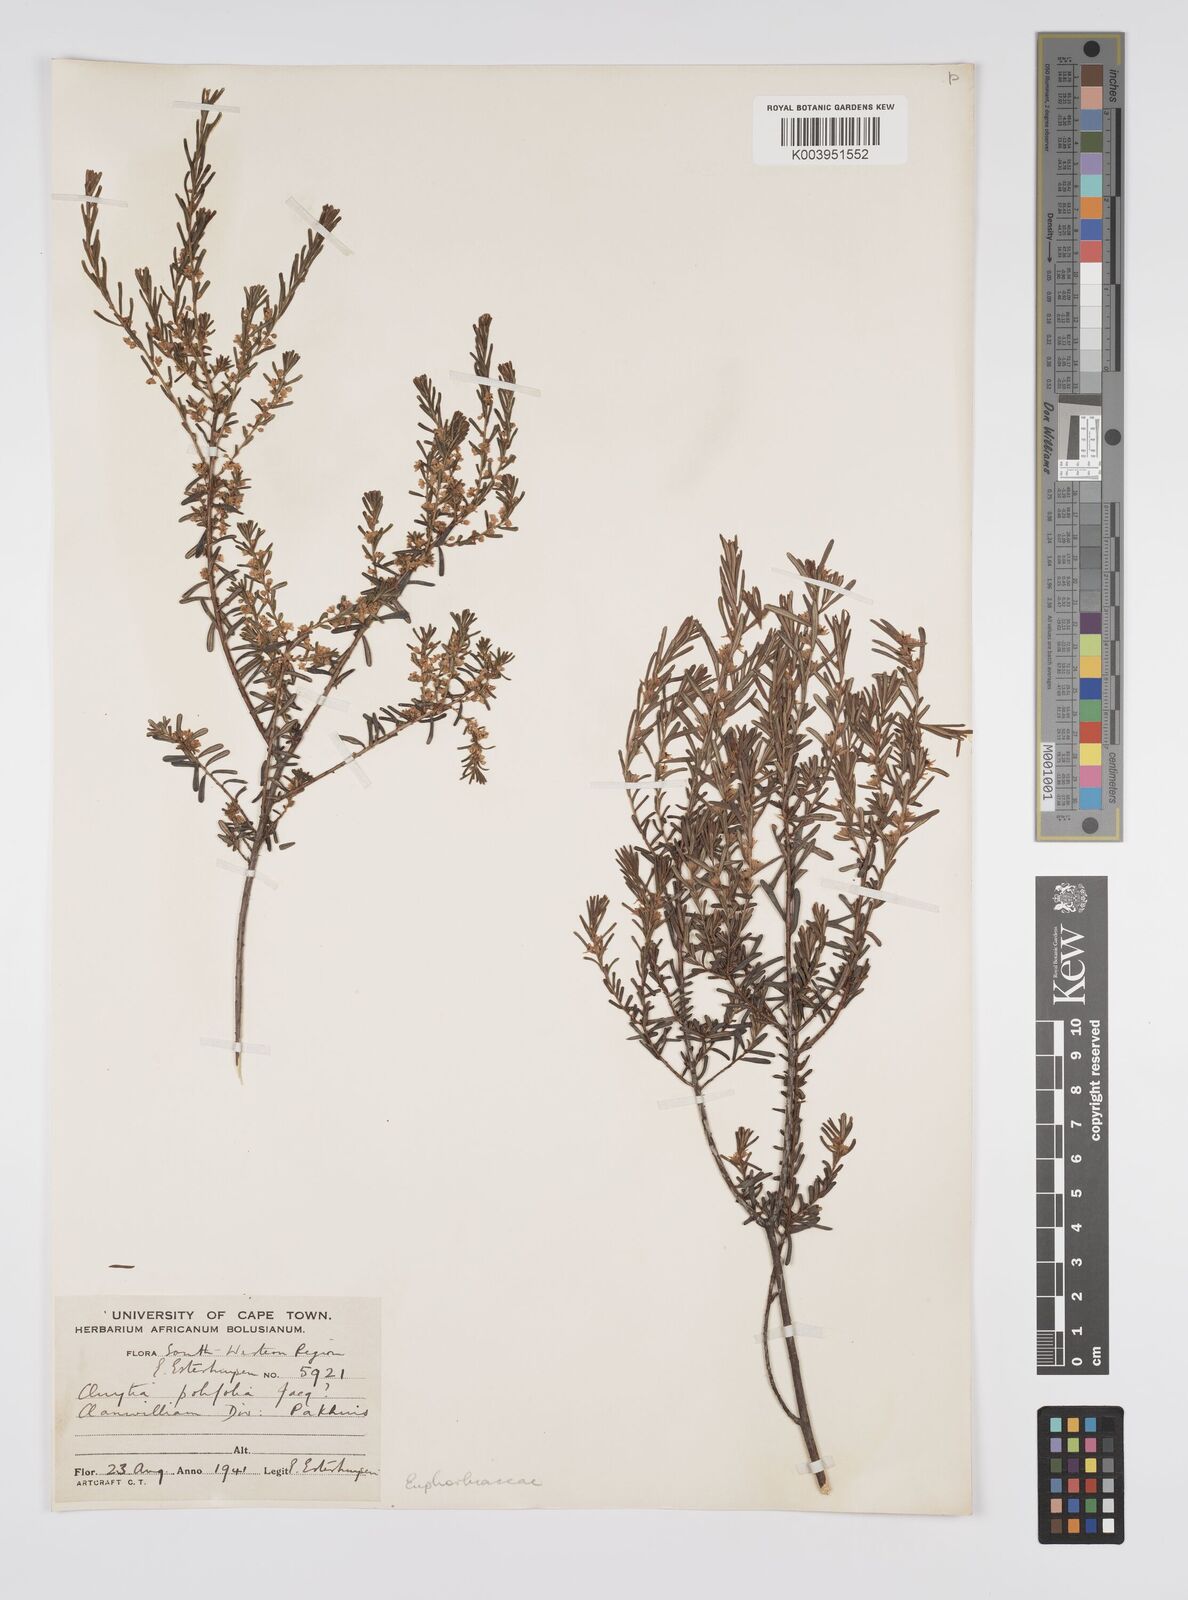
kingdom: Plantae
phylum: Tracheophyta
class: Magnoliopsida
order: Malpighiales
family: Peraceae
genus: Clutia
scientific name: Clutia
